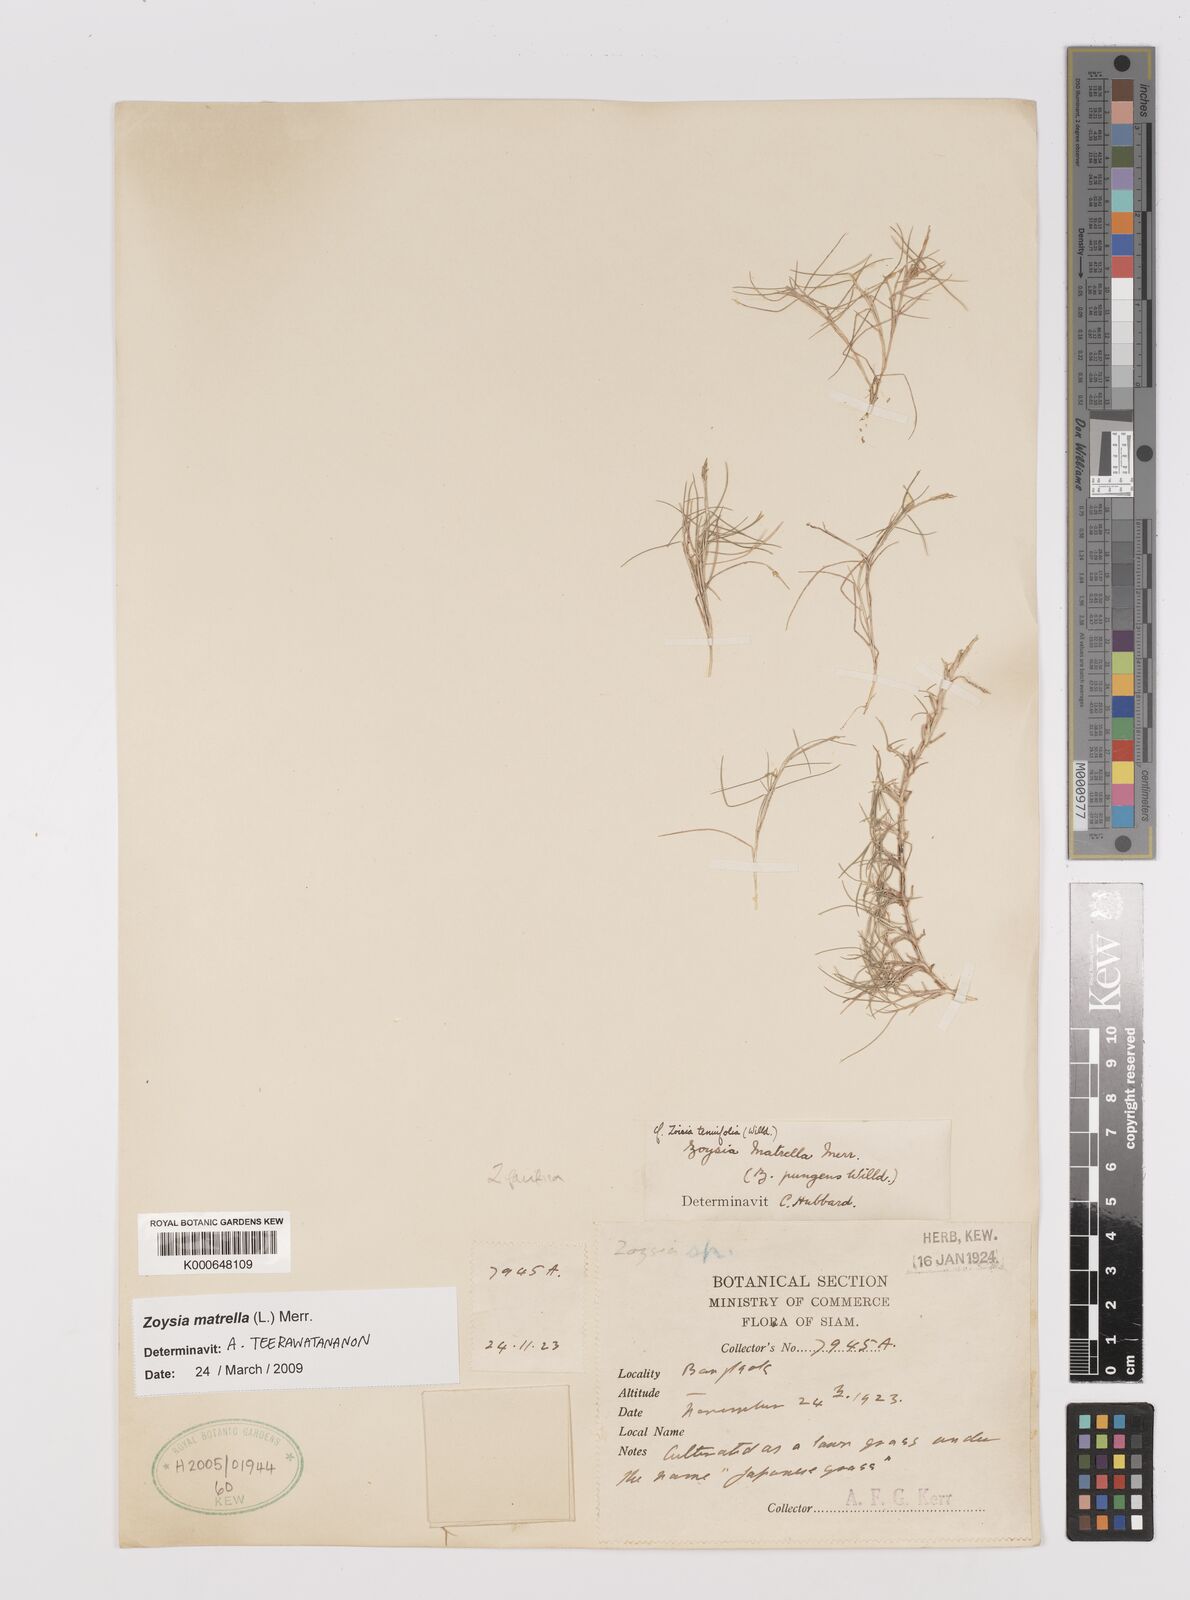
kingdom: Plantae
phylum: Tracheophyta
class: Liliopsida
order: Poales
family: Poaceae
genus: Zoysia
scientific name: Zoysia matrella
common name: Manila grass
